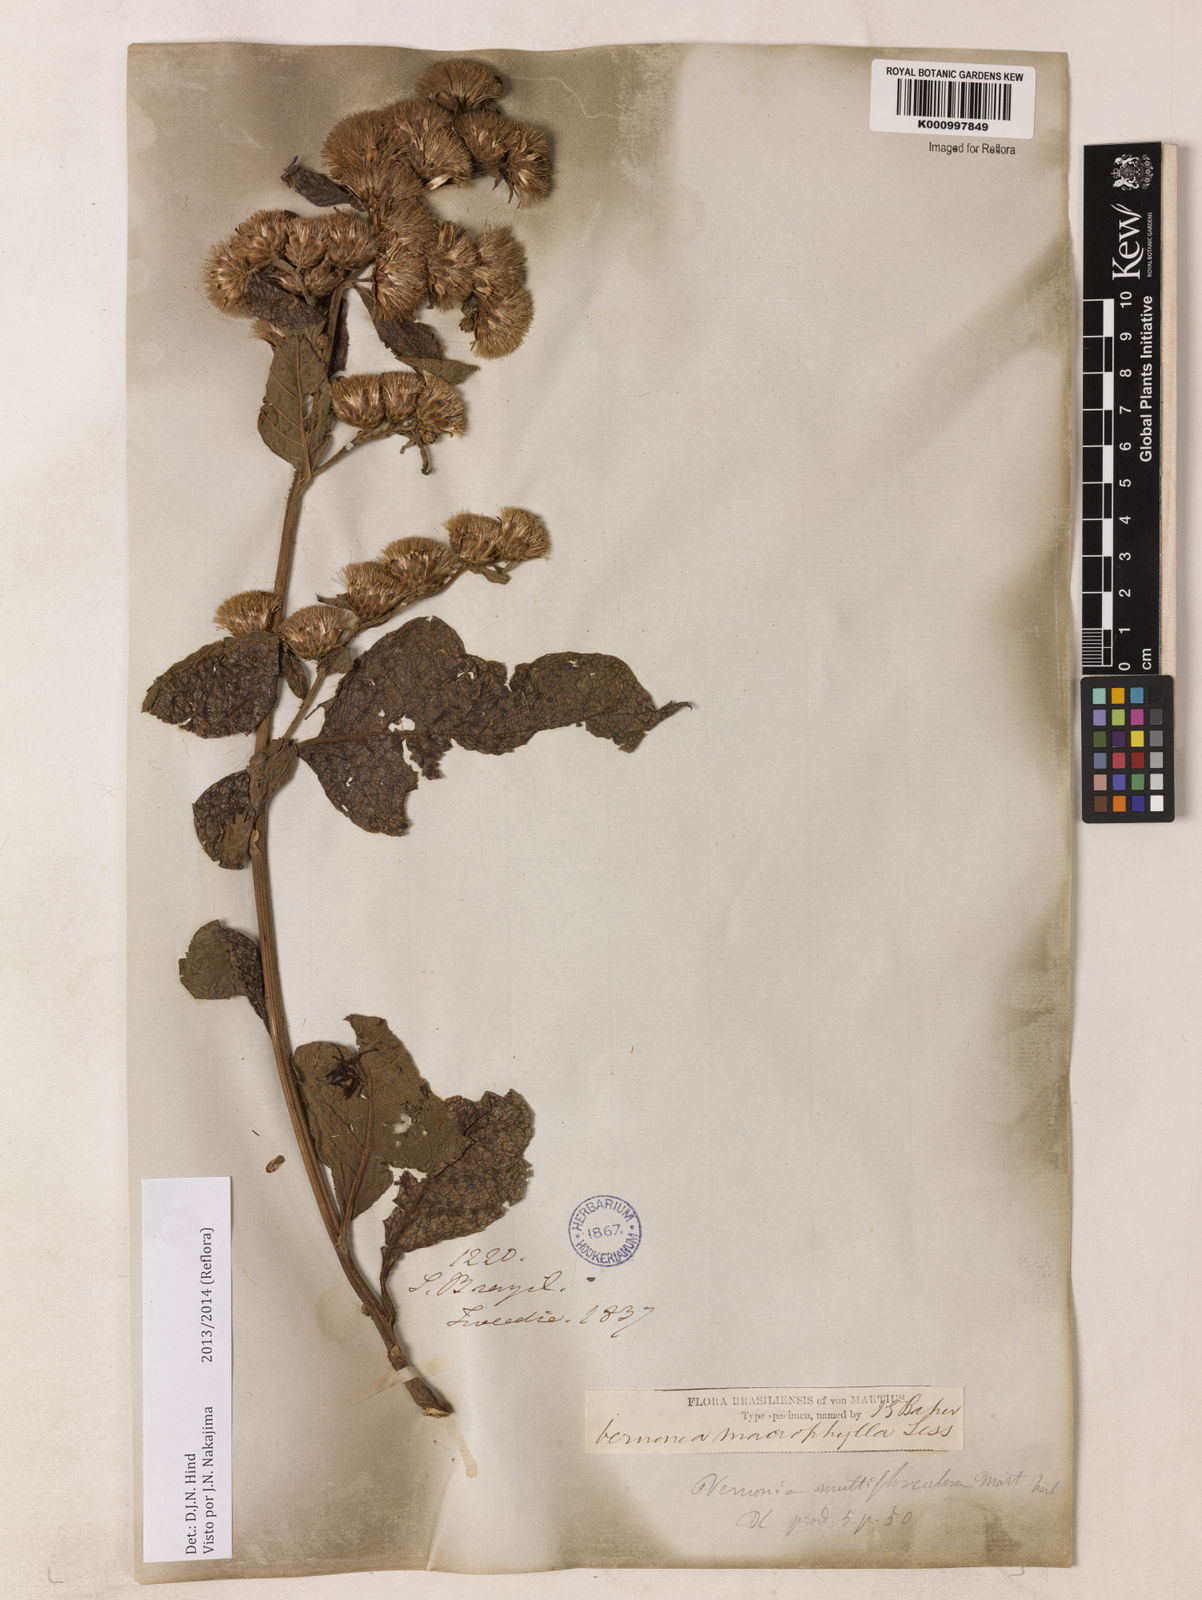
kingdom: Plantae
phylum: Tracheophyta
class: Magnoliopsida
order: Asterales
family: Asteraceae
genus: Lessingianthus
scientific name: Lessingianthus macrophyllus
